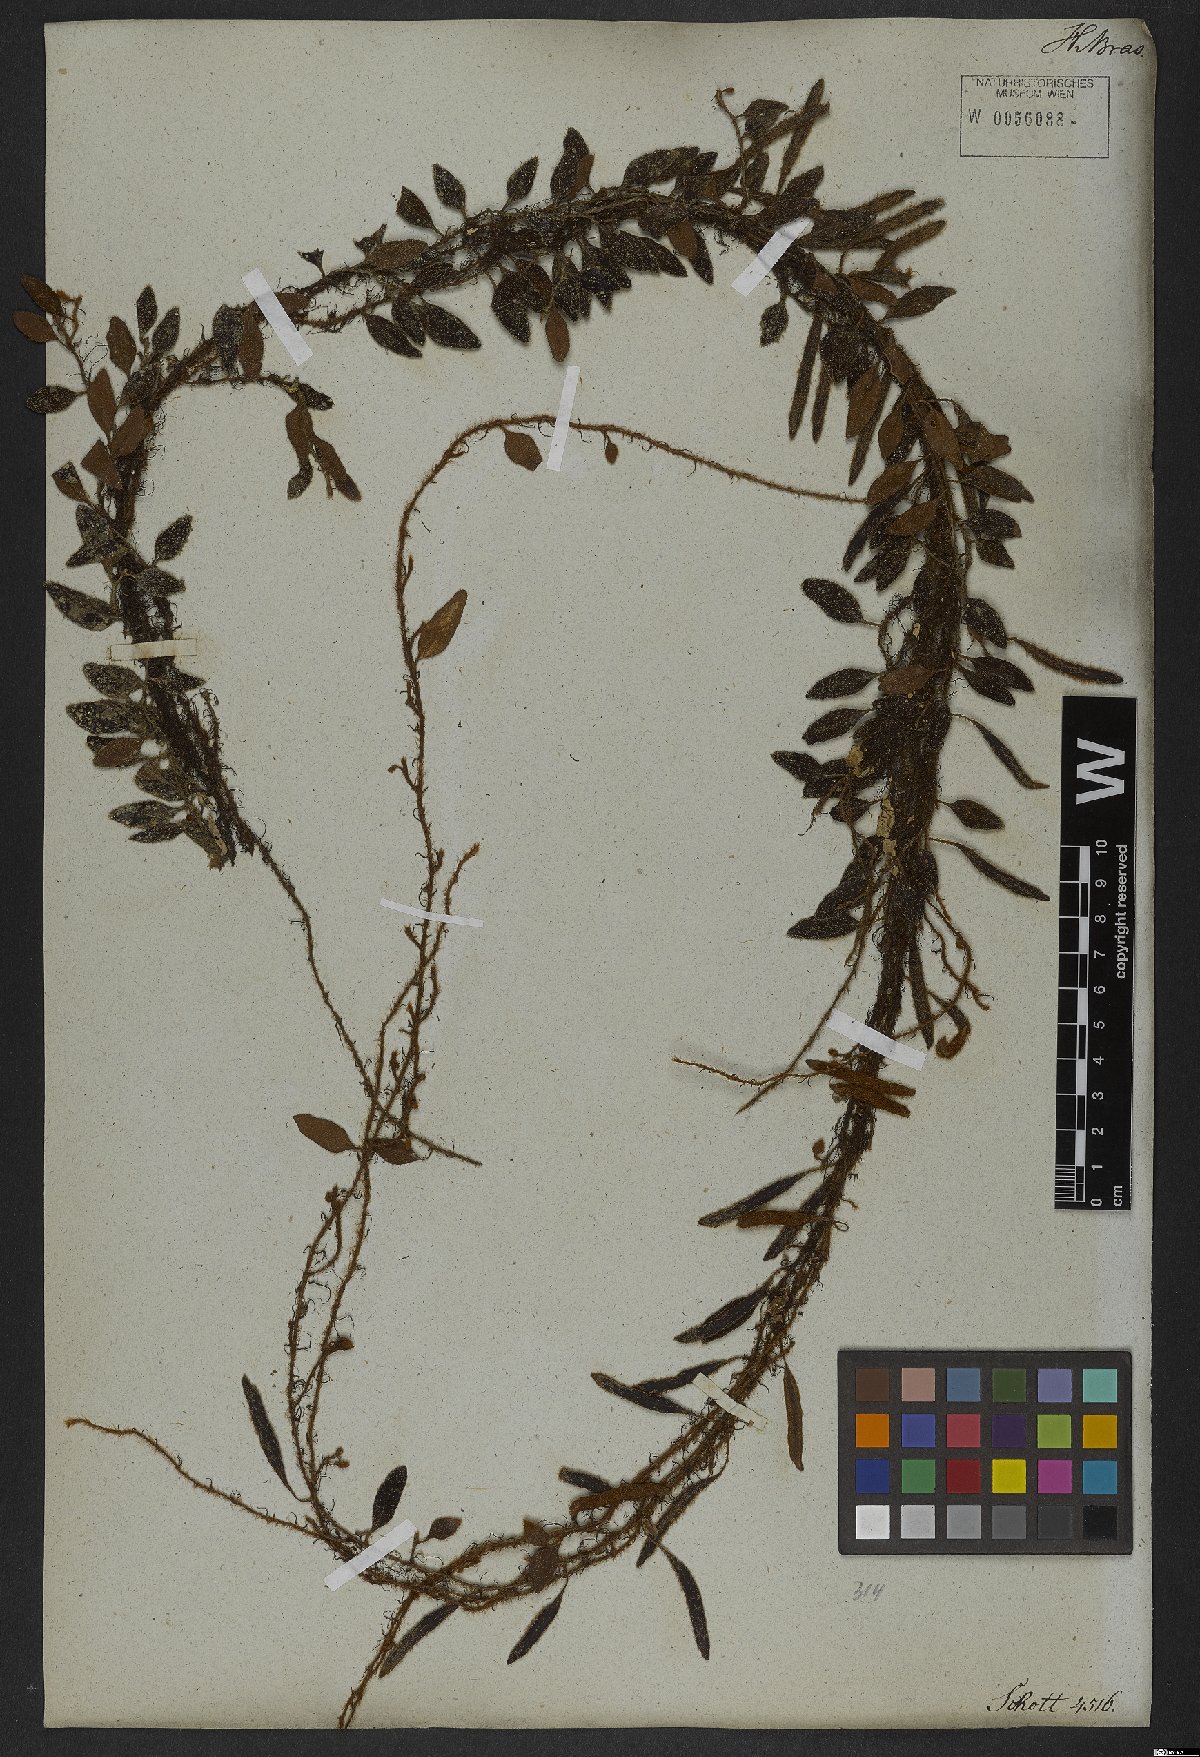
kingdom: Plantae
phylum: Tracheophyta
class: Polypodiopsida
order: Polypodiales
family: Polypodiaceae
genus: Serpocaulon
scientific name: Serpocaulon triseriale
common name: Angle-vein fern
